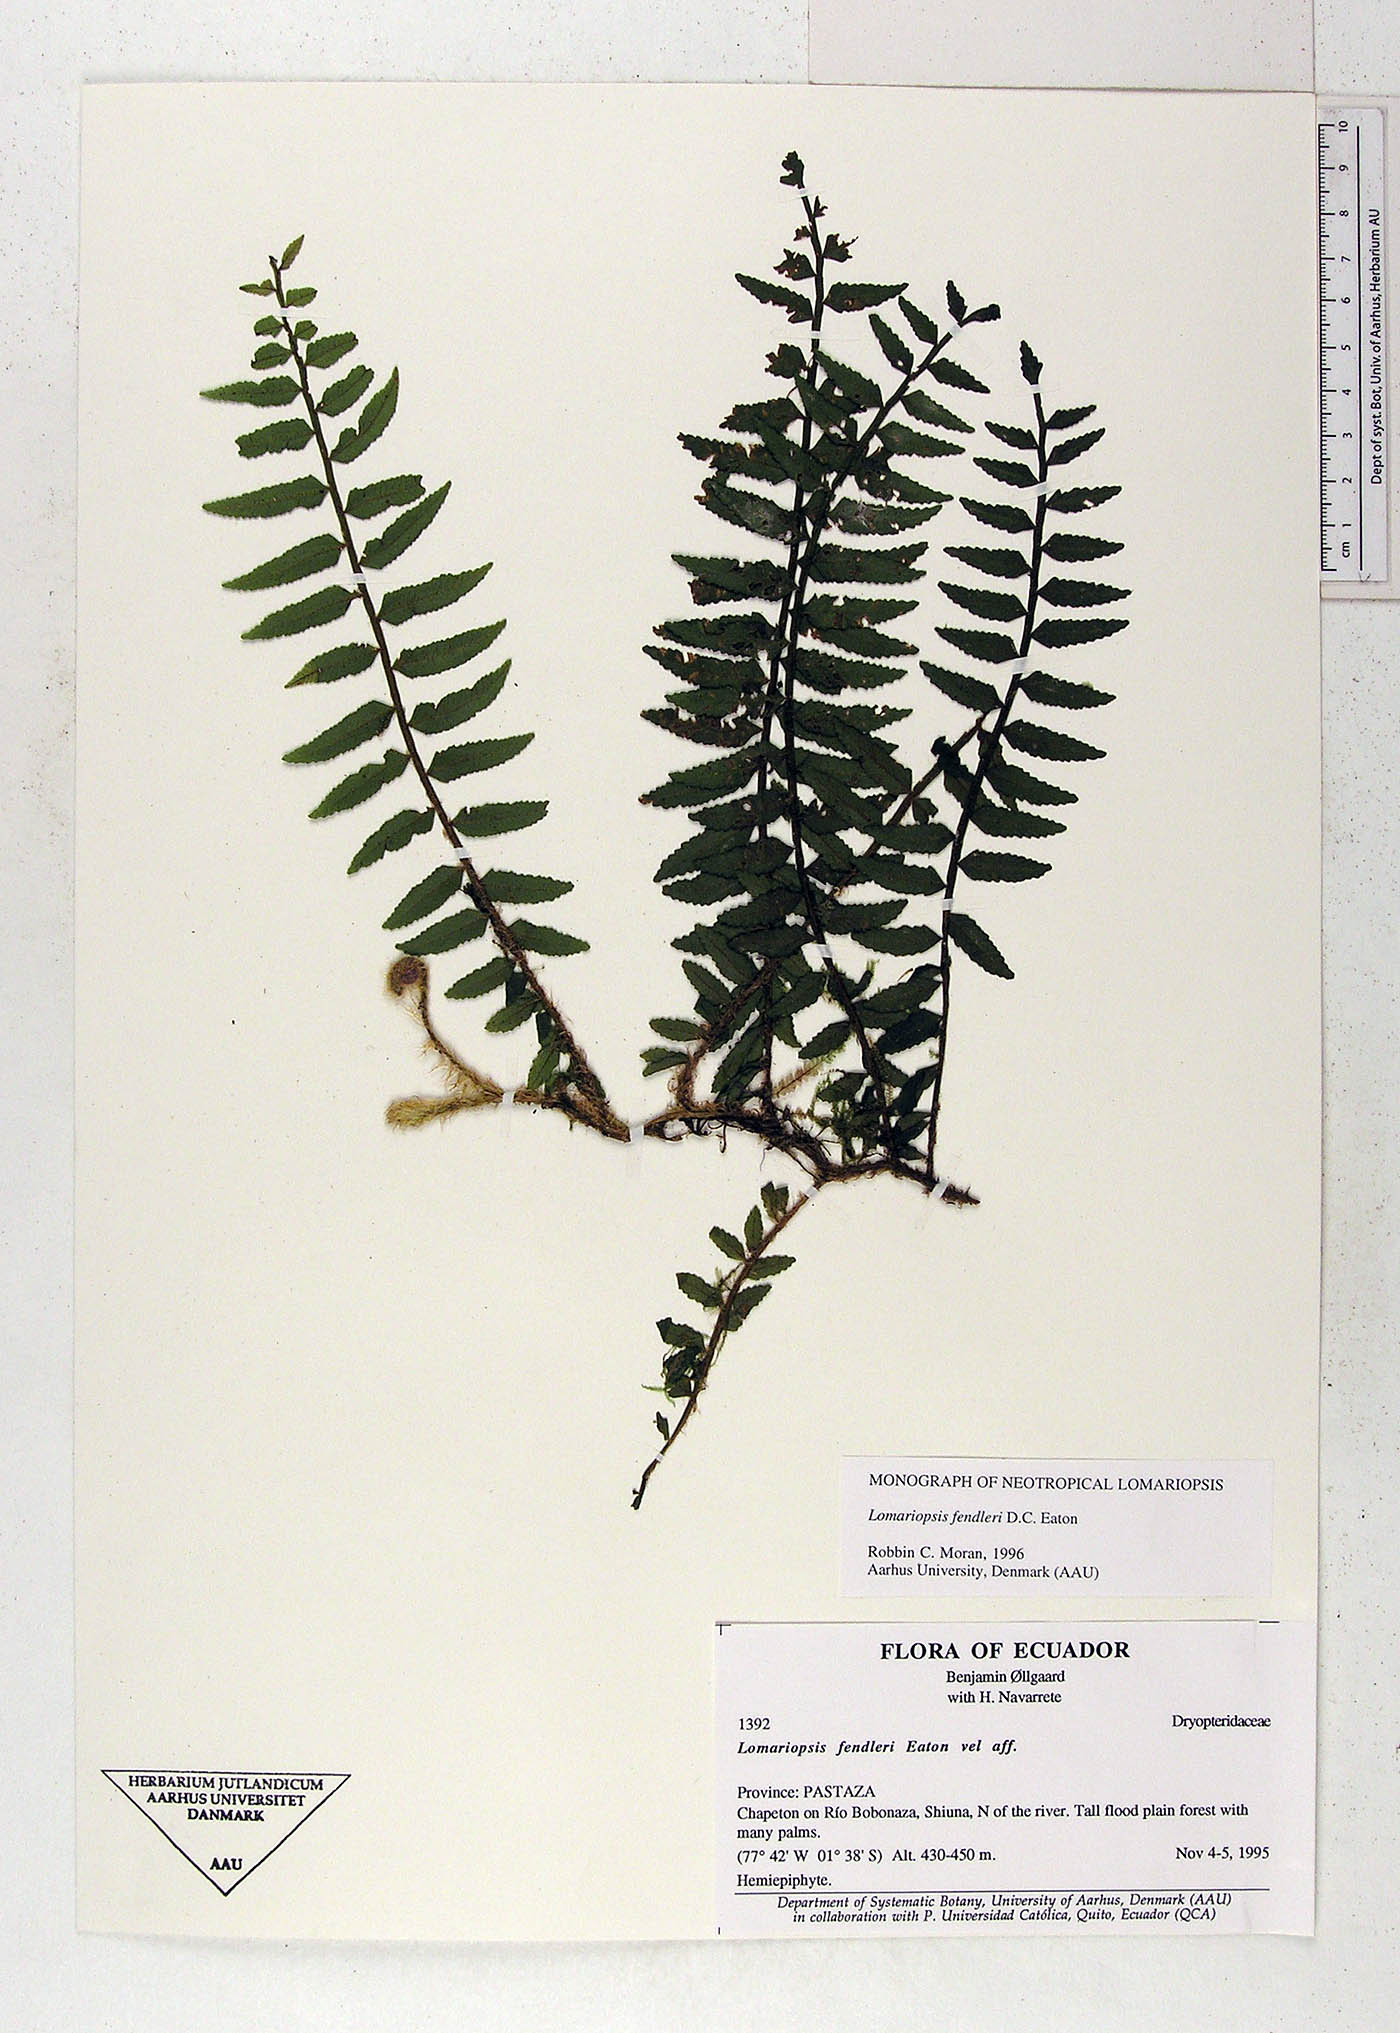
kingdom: Plantae
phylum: Tracheophyta
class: Polypodiopsida
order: Polypodiales
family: Lomariopsidaceae
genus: Lomariopsis
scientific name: Lomariopsis fendleri
